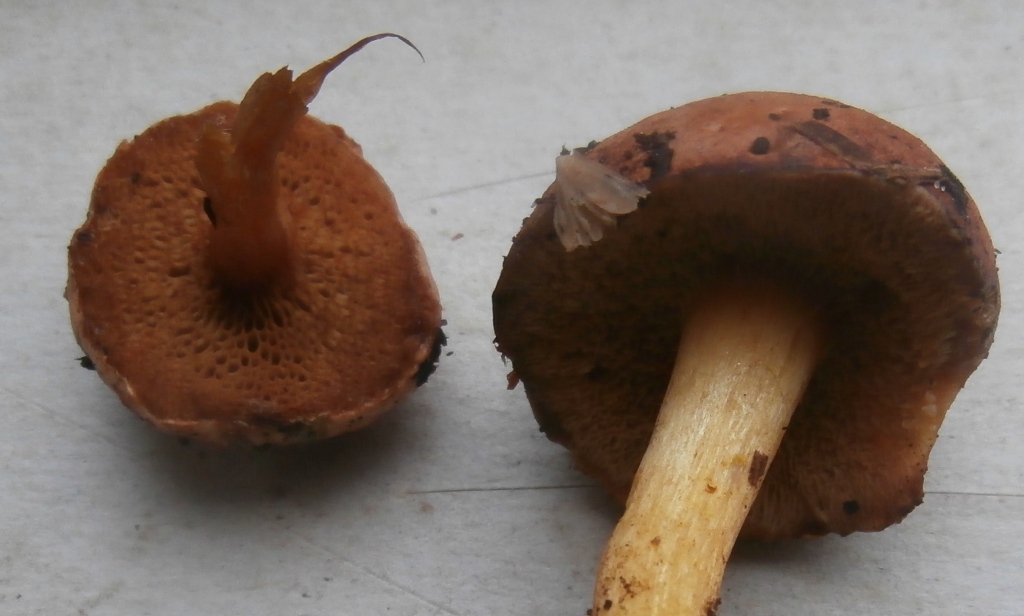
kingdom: Fungi
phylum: Basidiomycota
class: Agaricomycetes
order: Boletales
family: Boletaceae
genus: Chalciporus
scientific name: Chalciporus piperatus
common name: peberrørhat
